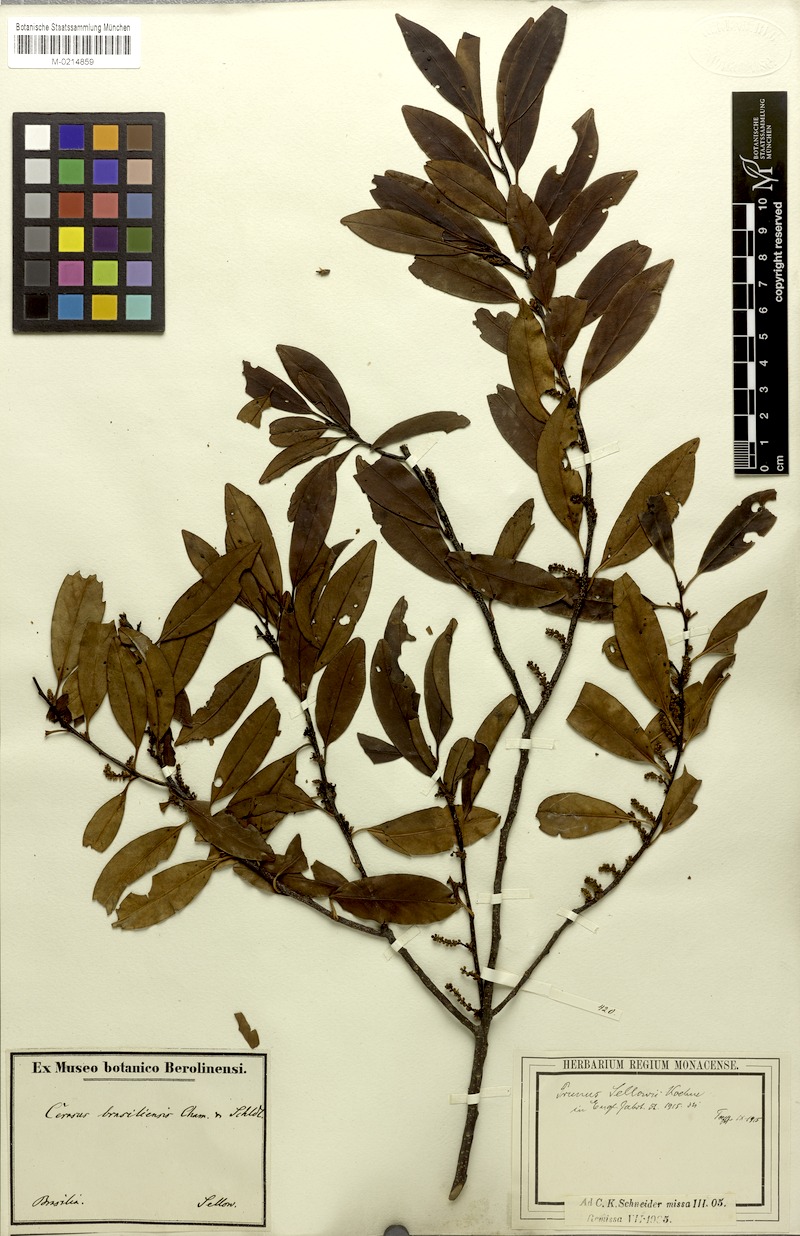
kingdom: Plantae
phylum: Tracheophyta
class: Magnoliopsida
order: Rosales
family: Rosaceae
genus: Prunus
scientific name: Prunus reflexa
